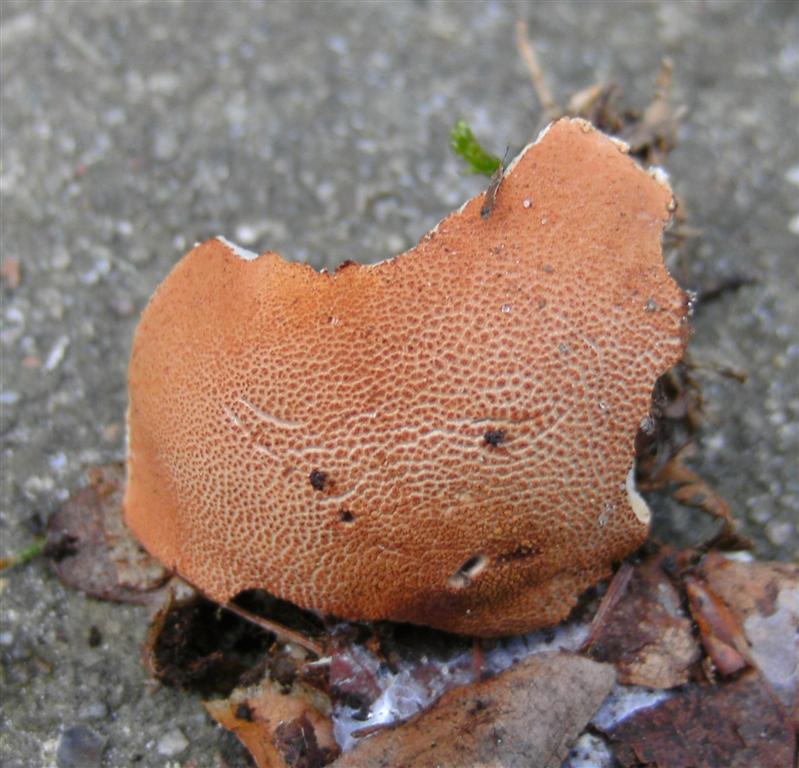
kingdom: Fungi
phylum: Basidiomycota
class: Agaricomycetes
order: Agaricales
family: Agaricaceae
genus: Cystodermella
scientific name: Cystodermella adnatifolia
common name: koralrød grynhat
